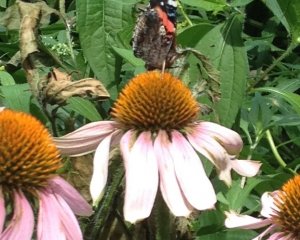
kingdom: Animalia
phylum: Arthropoda
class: Insecta
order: Lepidoptera
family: Nymphalidae
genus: Vanessa
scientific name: Vanessa atalanta
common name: Red Admiral
